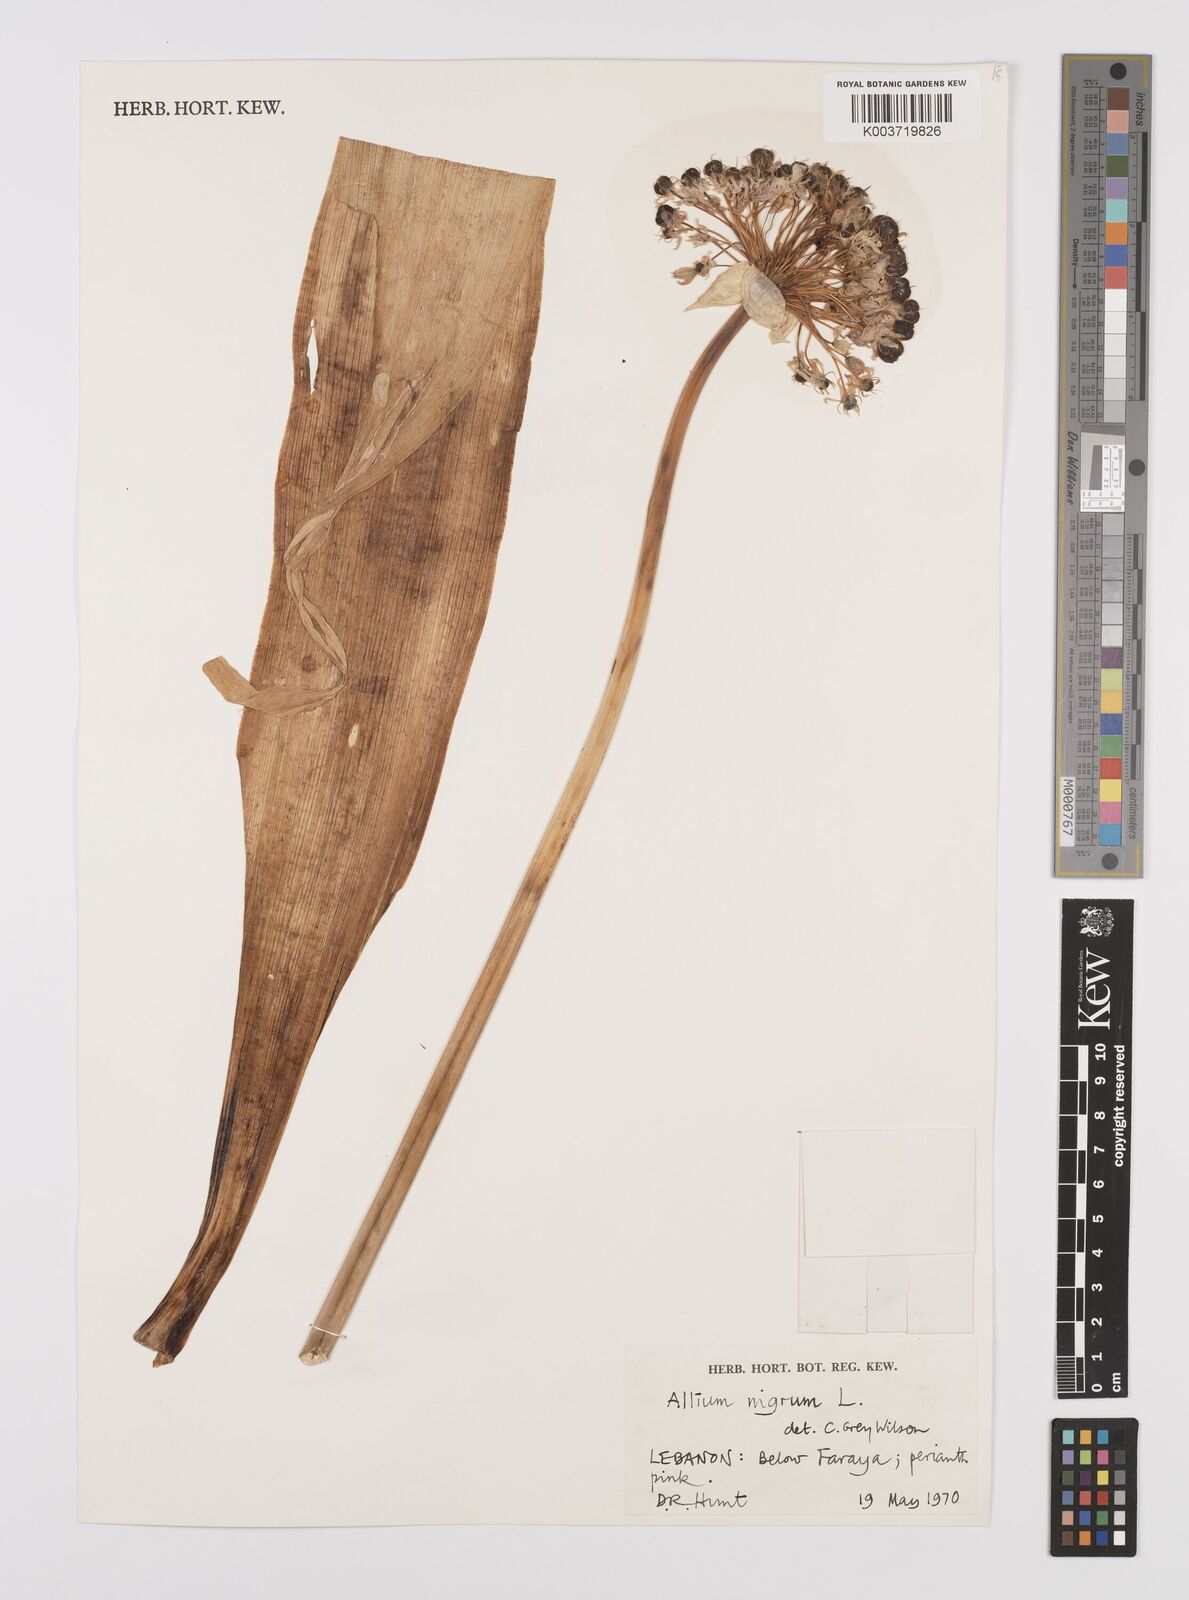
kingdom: Plantae
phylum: Tracheophyta
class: Liliopsida
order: Asparagales
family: Amaryllidaceae
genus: Allium
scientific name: Allium nigrum
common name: Black garlic
